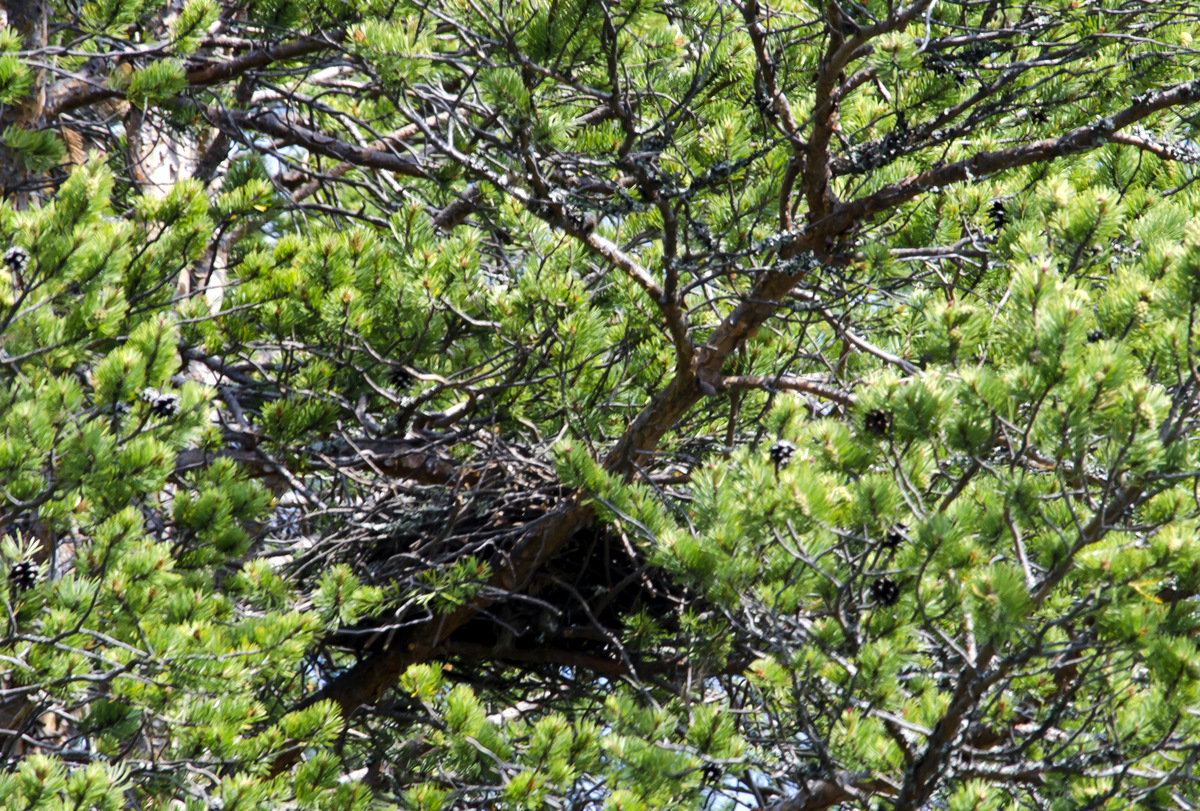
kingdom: Animalia
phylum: Chordata
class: Aves
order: Accipitriformes
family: Accipitridae
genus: Accipiter
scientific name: Accipiter nisus
